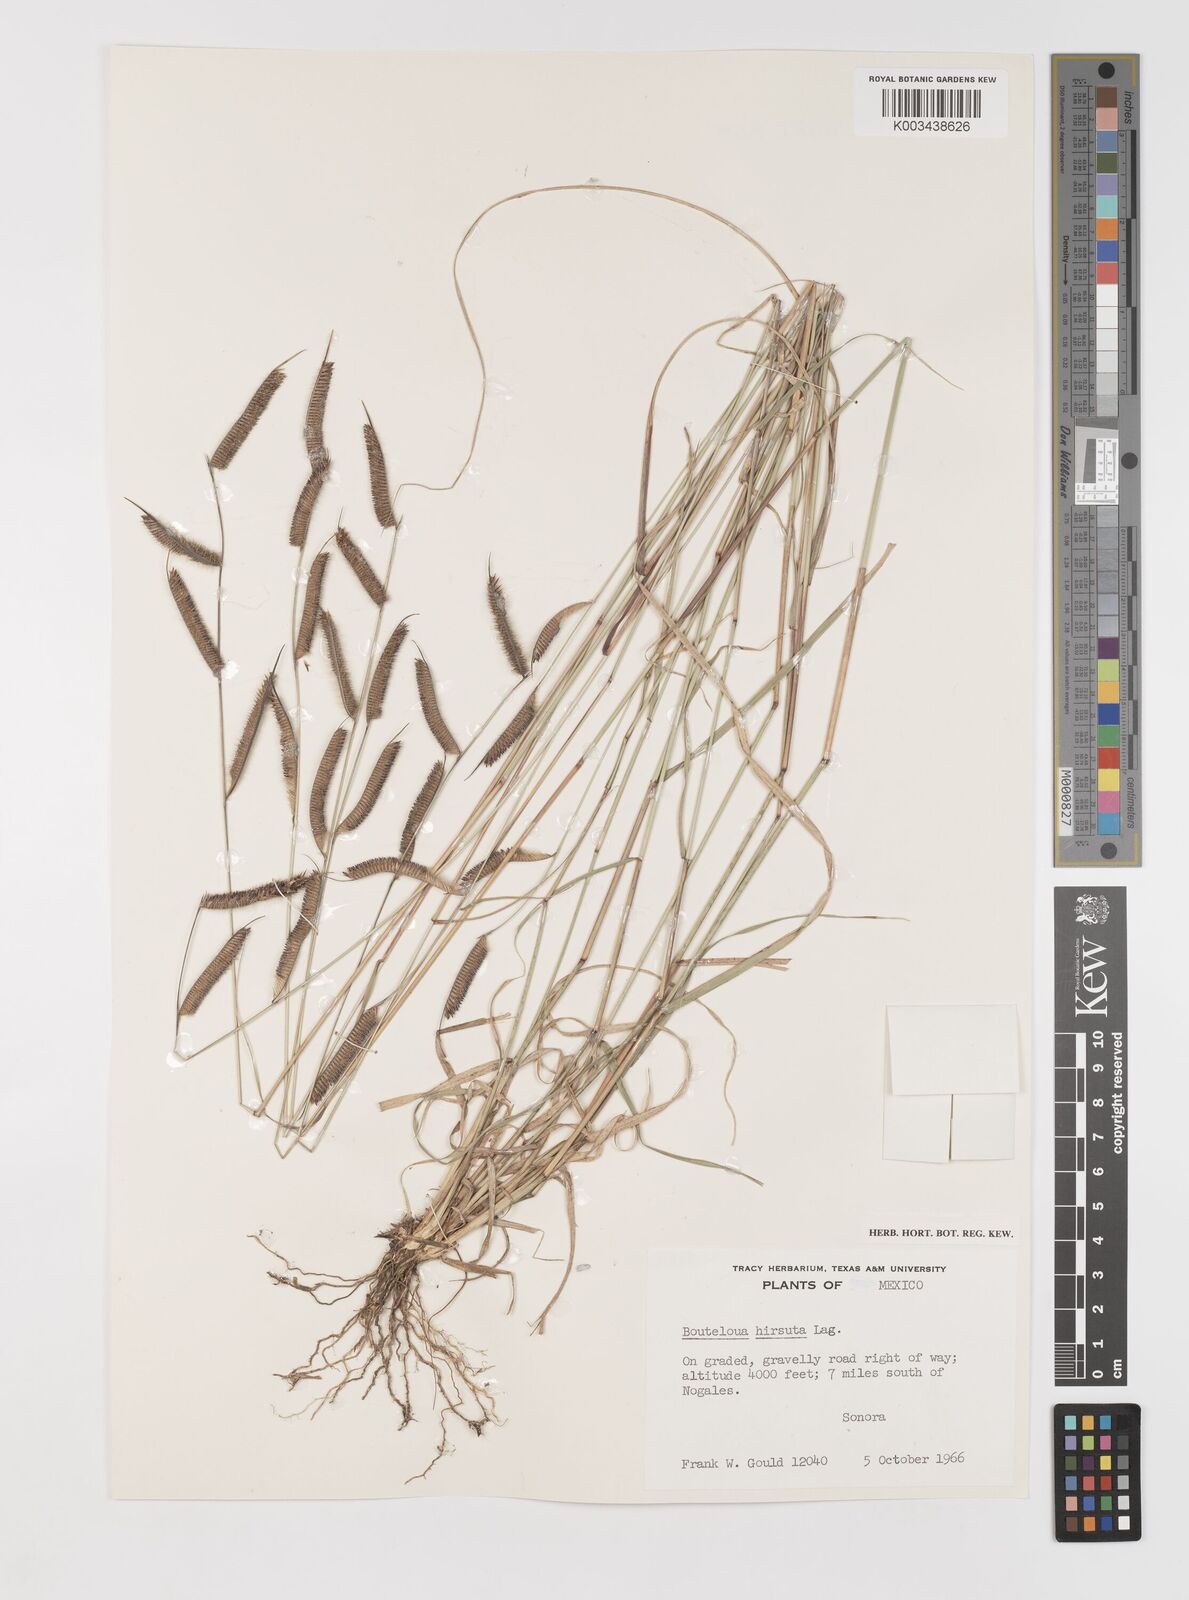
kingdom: Plantae
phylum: Tracheophyta
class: Liliopsida
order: Poales
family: Poaceae
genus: Bouteloua
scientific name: Bouteloua hirsuta
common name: Hairy grama
